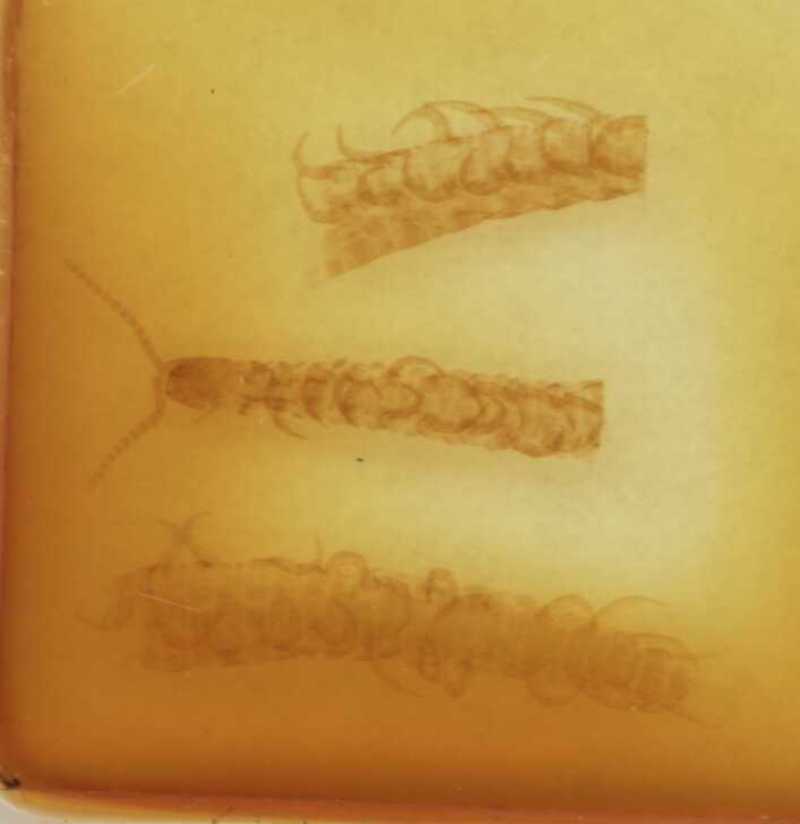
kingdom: Animalia
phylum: Arthropoda
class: Chilopoda
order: Geophilomorpha
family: Linotaeniidae
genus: Strigamia
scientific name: Strigamia crassipes
